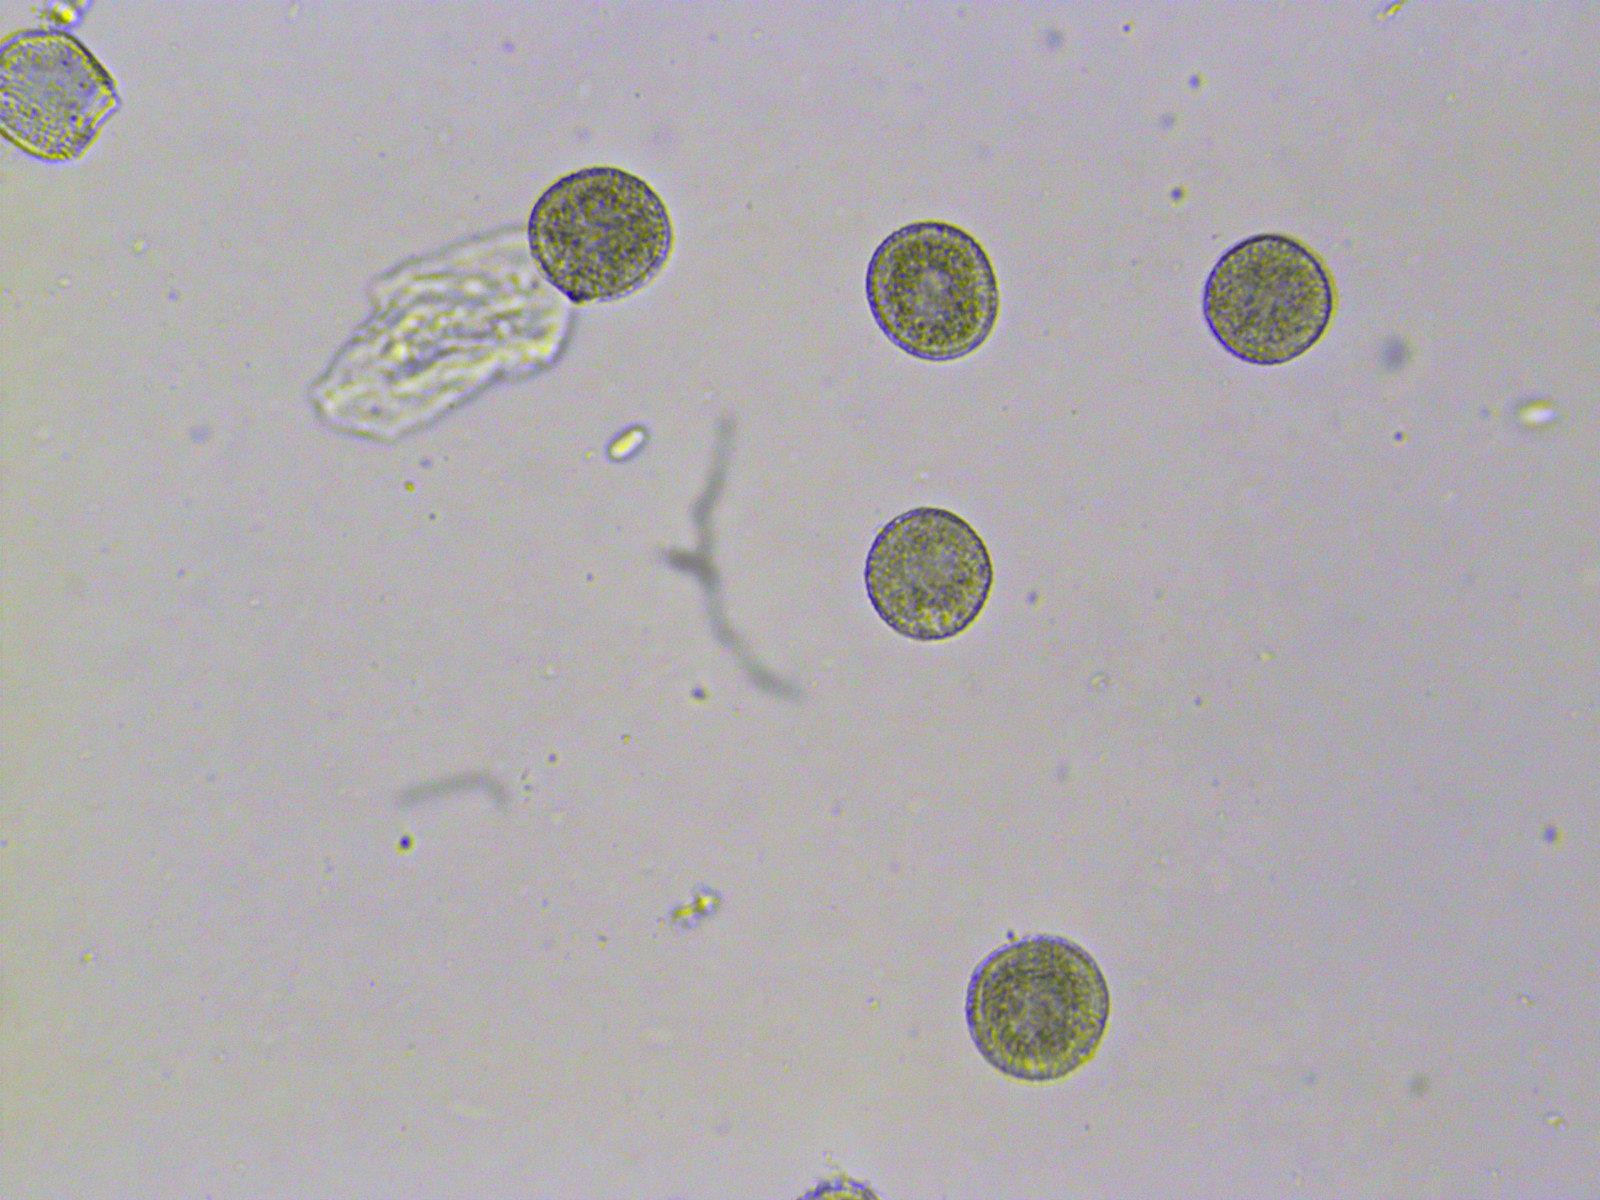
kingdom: Fungi
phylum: Basidiomycota
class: Pucciniomycetes
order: Pucciniales
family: Melampsoraceae
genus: Melampsora
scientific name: Melampsora galanthi-fragilis
